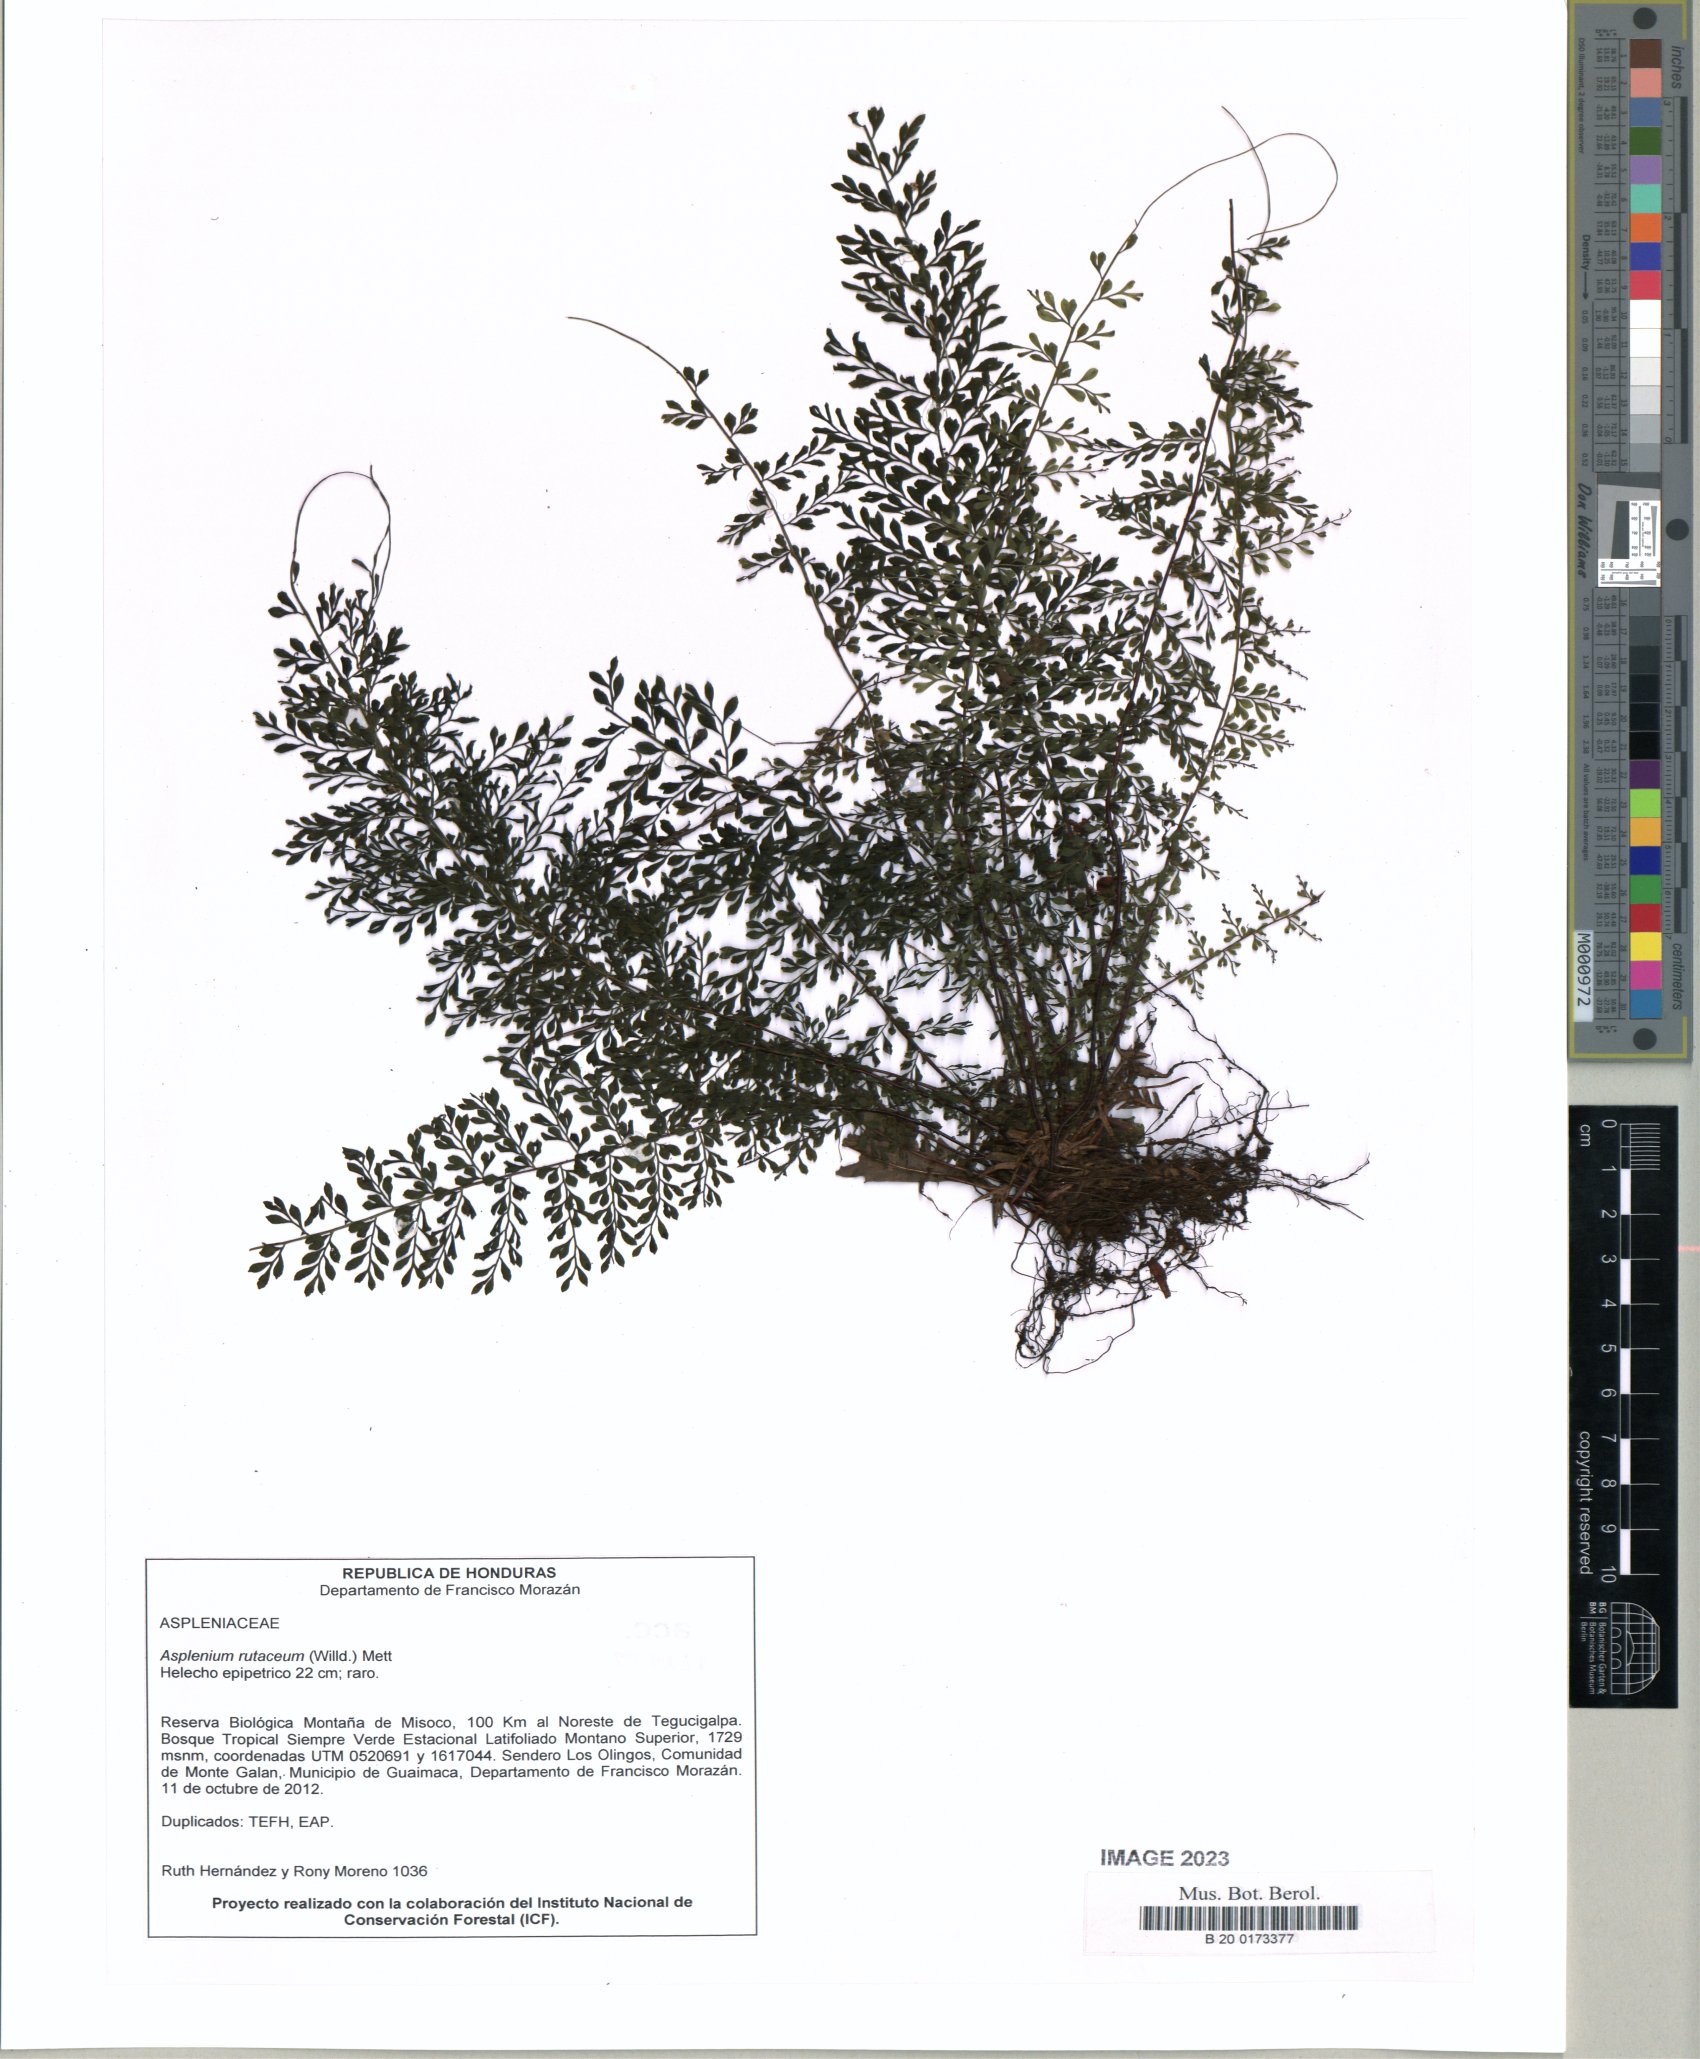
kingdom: Plantae
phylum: Tracheophyta
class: Polypodiopsida
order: Polypodiales
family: Aspleniaceae
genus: Asplenium
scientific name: Asplenium rutaceum
